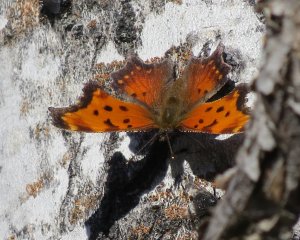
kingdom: Animalia
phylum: Arthropoda
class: Insecta
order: Lepidoptera
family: Nymphalidae
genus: Polygonia
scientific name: Polygonia gracilis
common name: Hoary Comma
